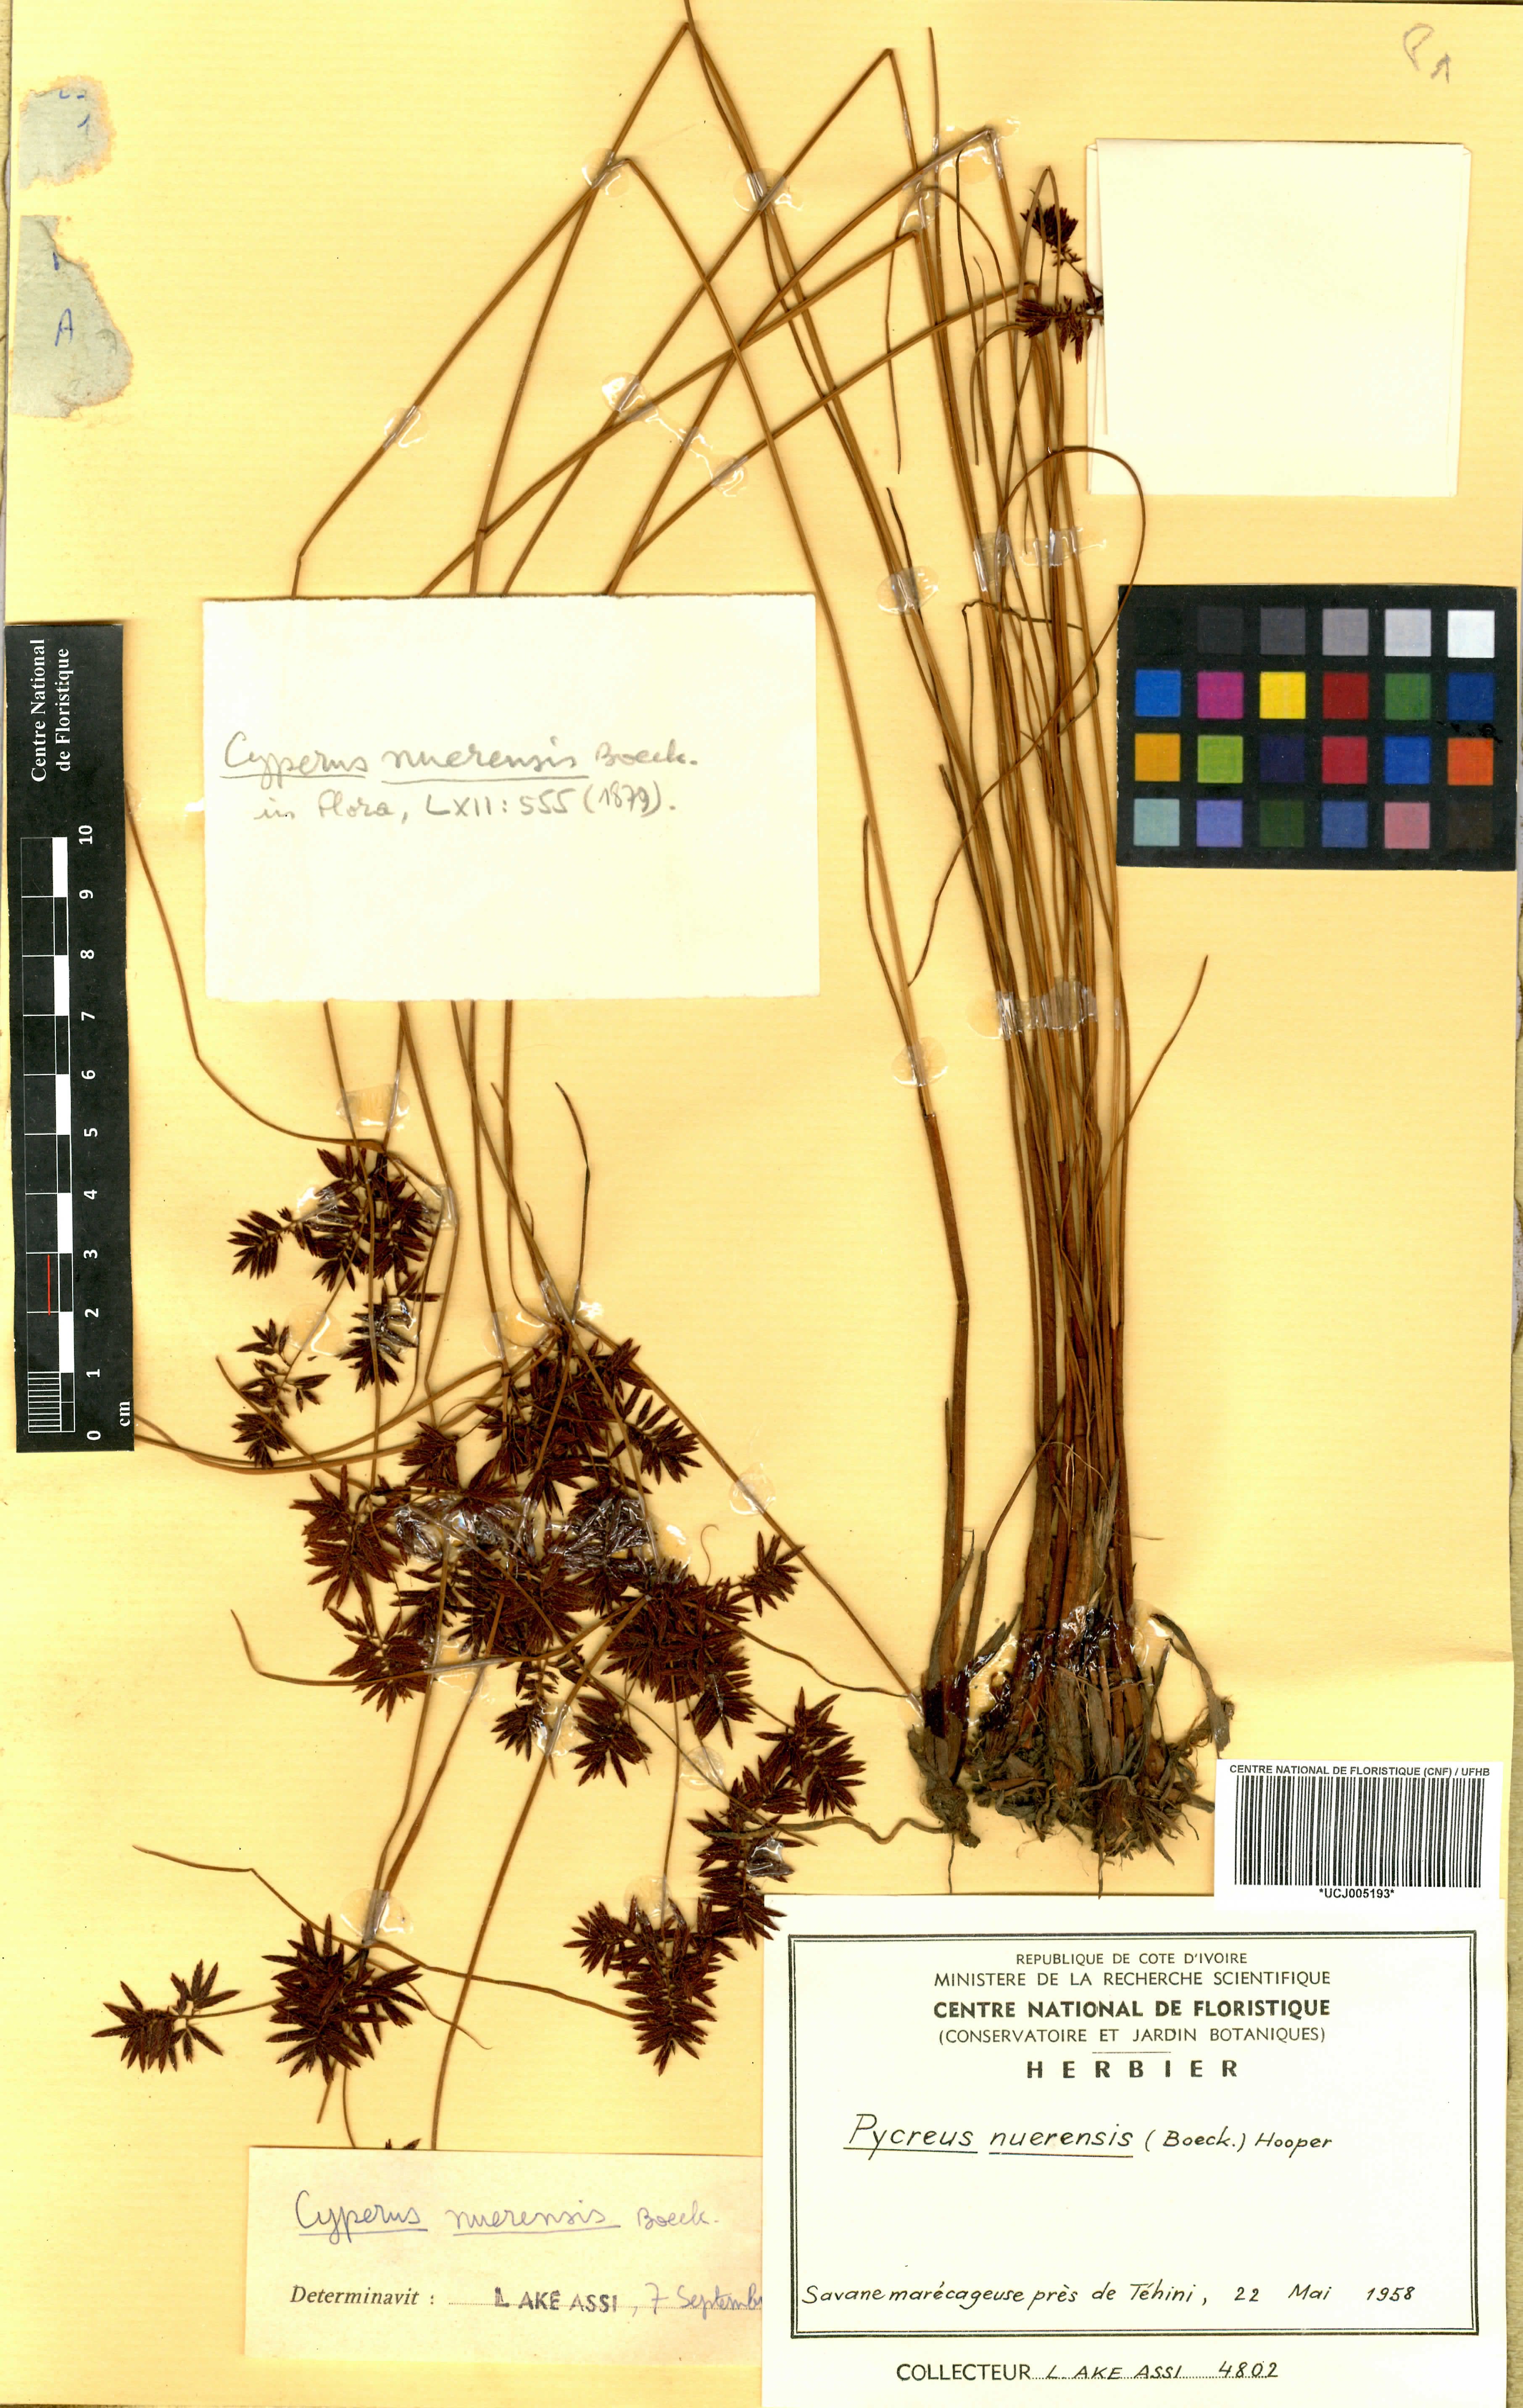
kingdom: Plantae
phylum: Tracheophyta
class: Liliopsida
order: Poales
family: Cyperaceae
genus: Cyperus
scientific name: Cyperus nuerensis
